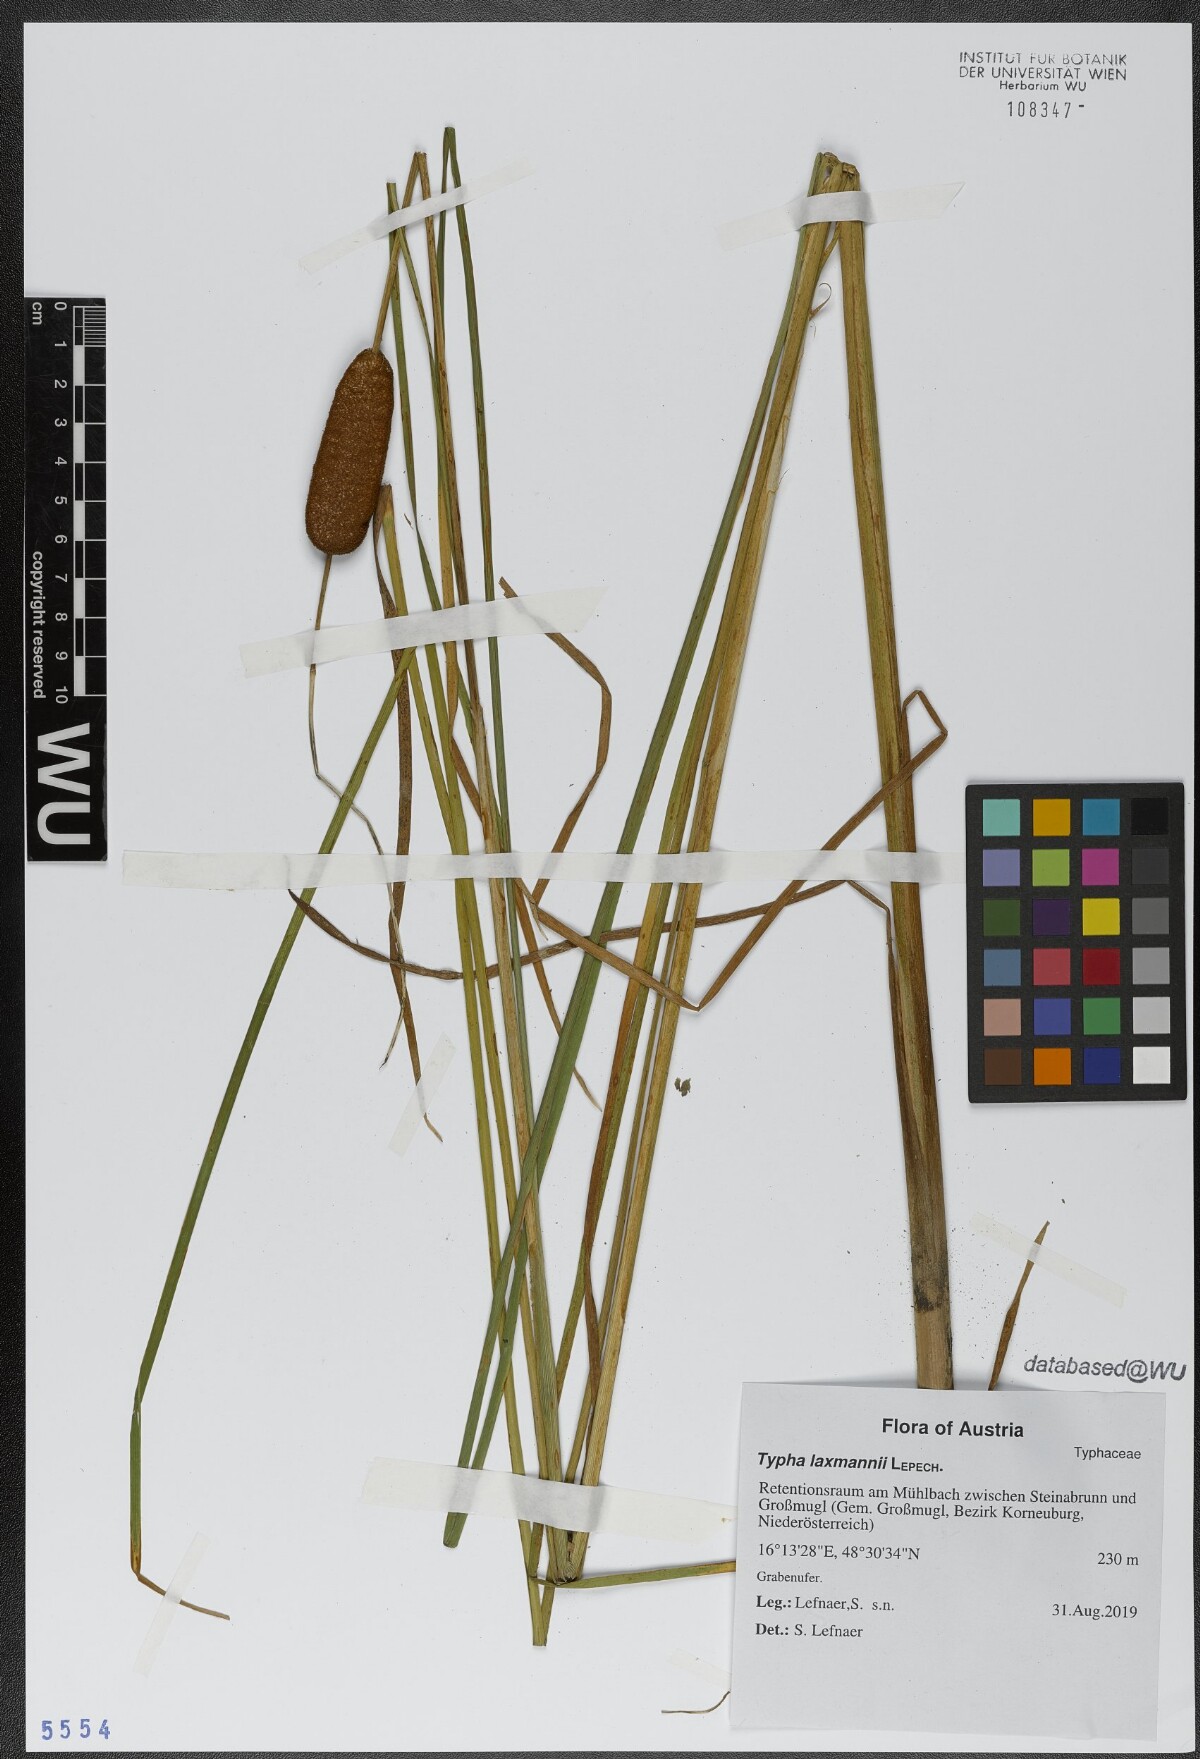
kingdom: Plantae
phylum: Tracheophyta
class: Liliopsida
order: Poales
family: Typhaceae
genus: Typha
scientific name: Typha laxmannii
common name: Laxman’s bulrush
